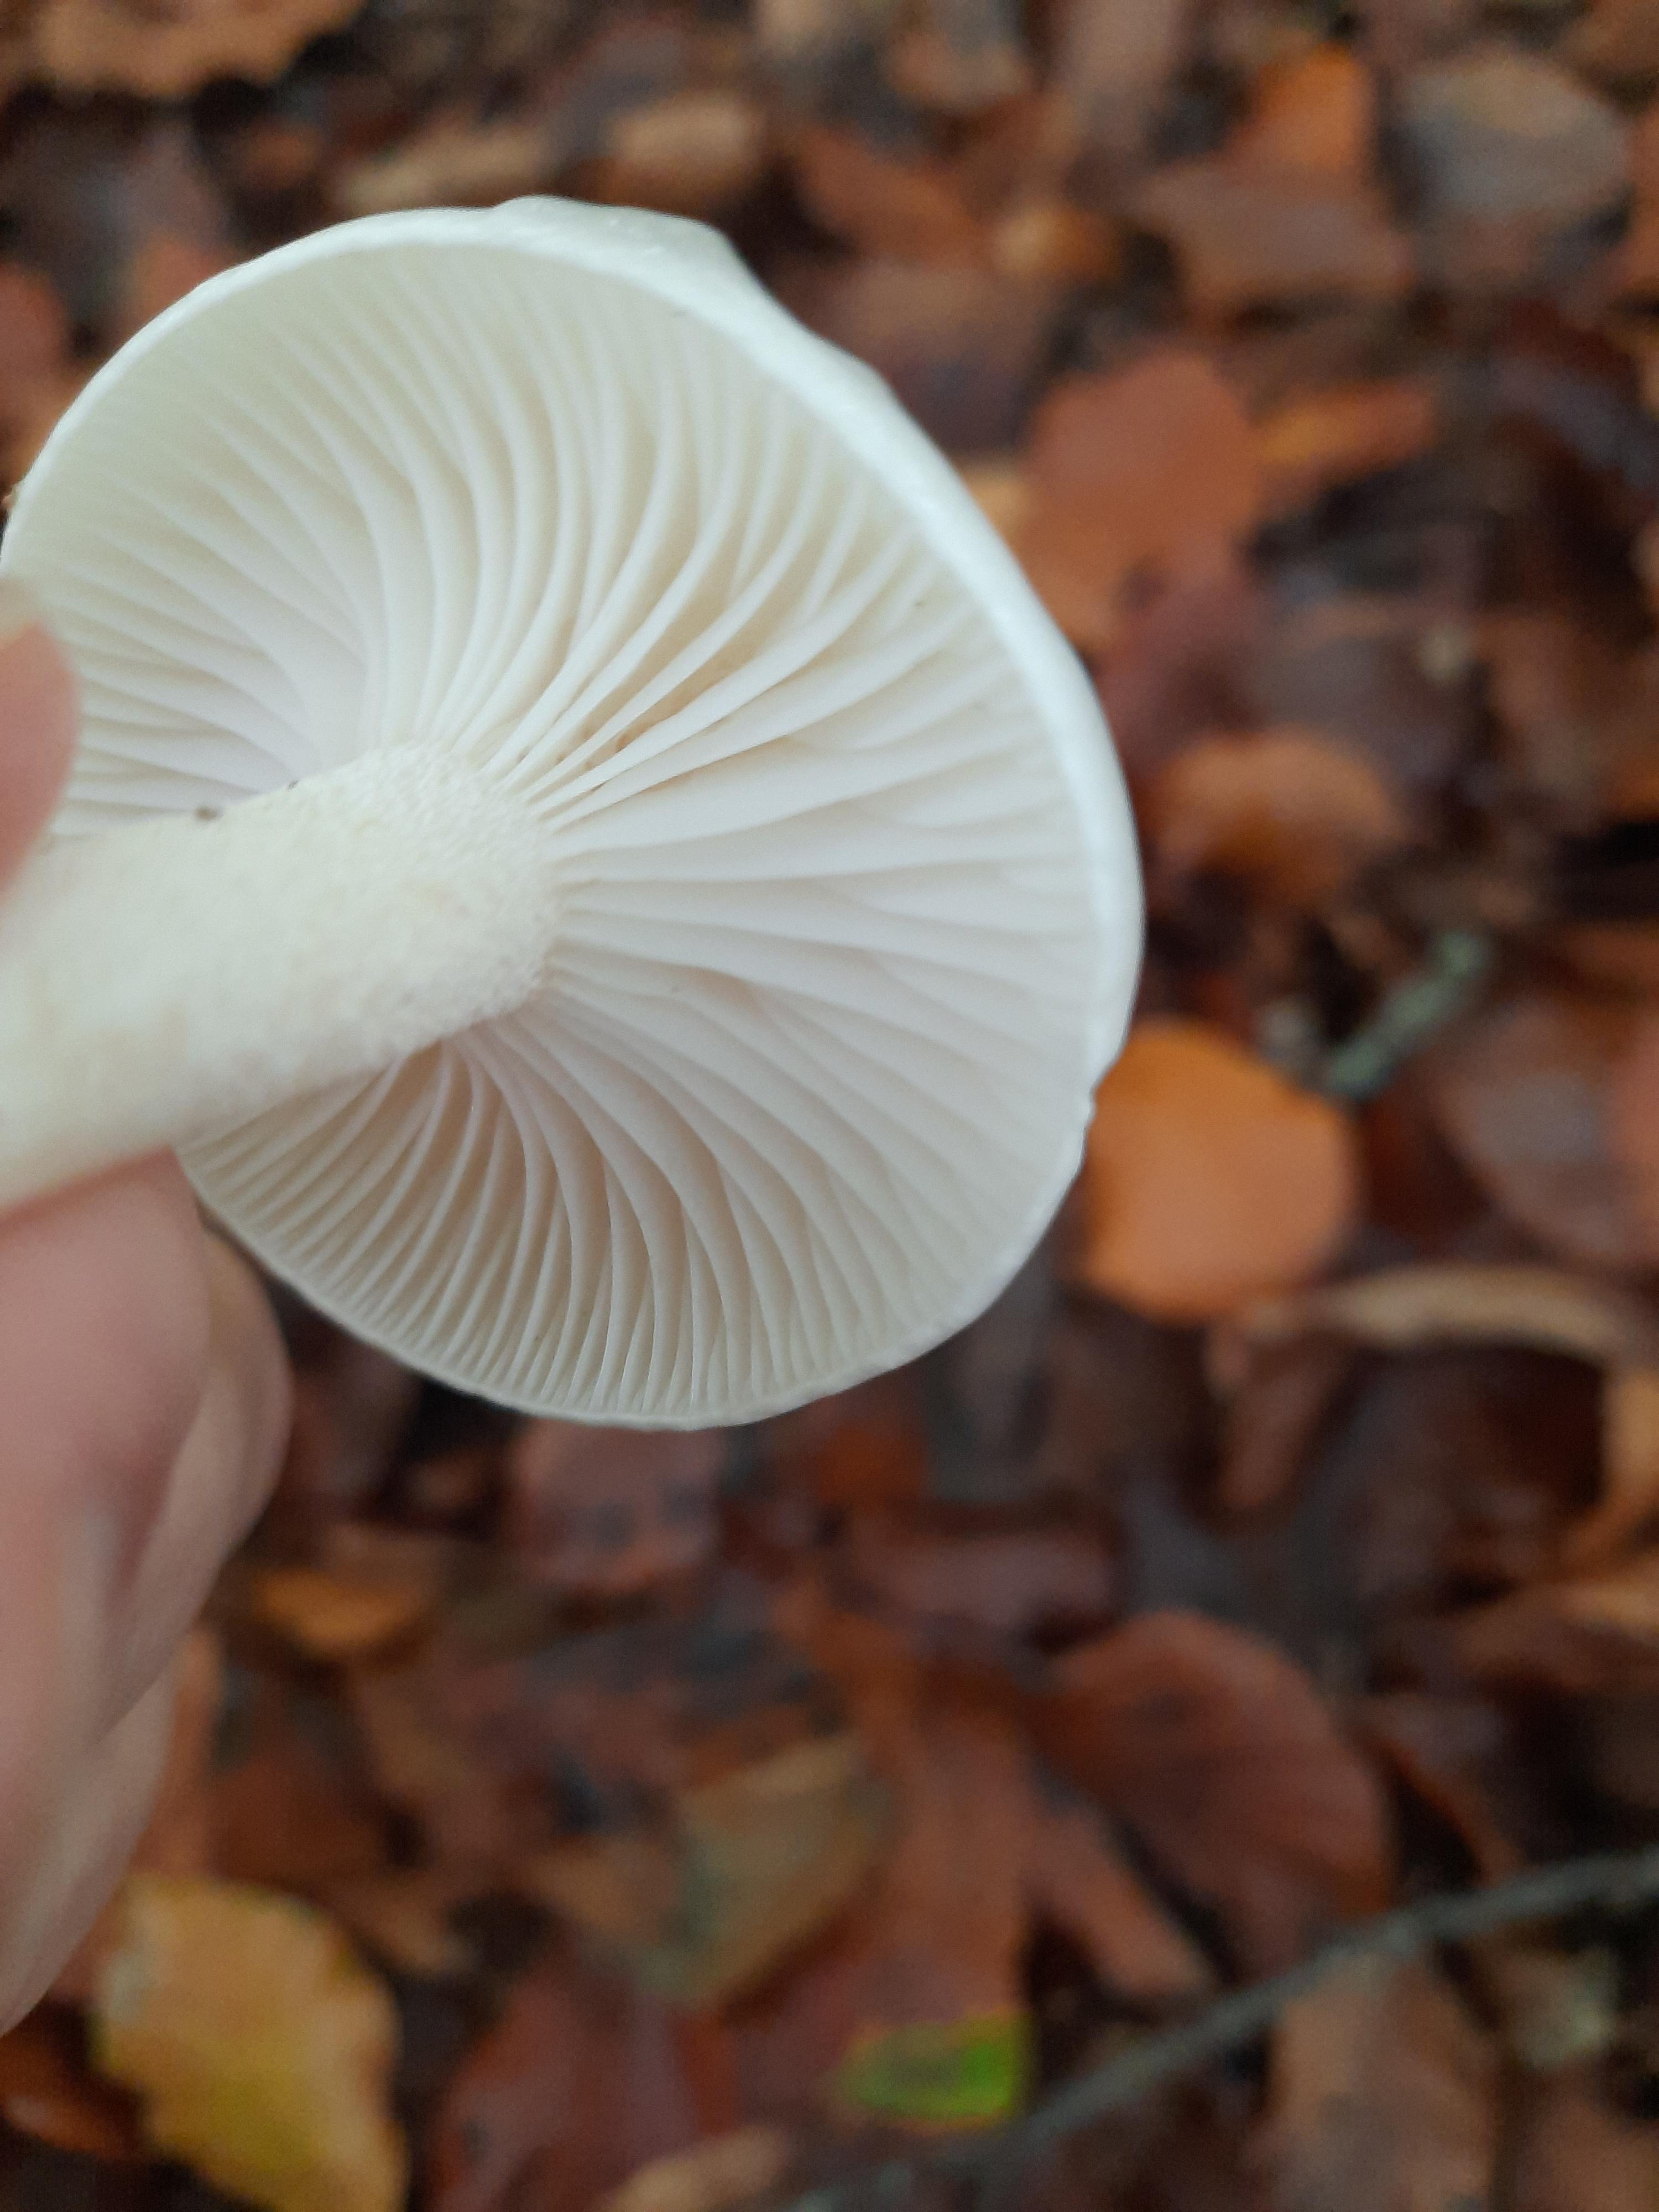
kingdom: Fungi
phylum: Basidiomycota
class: Agaricomycetes
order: Agaricales
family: Hygrophoraceae
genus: Hygrophorus
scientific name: Hygrophorus eburneus
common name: elfenbens-sneglehat
